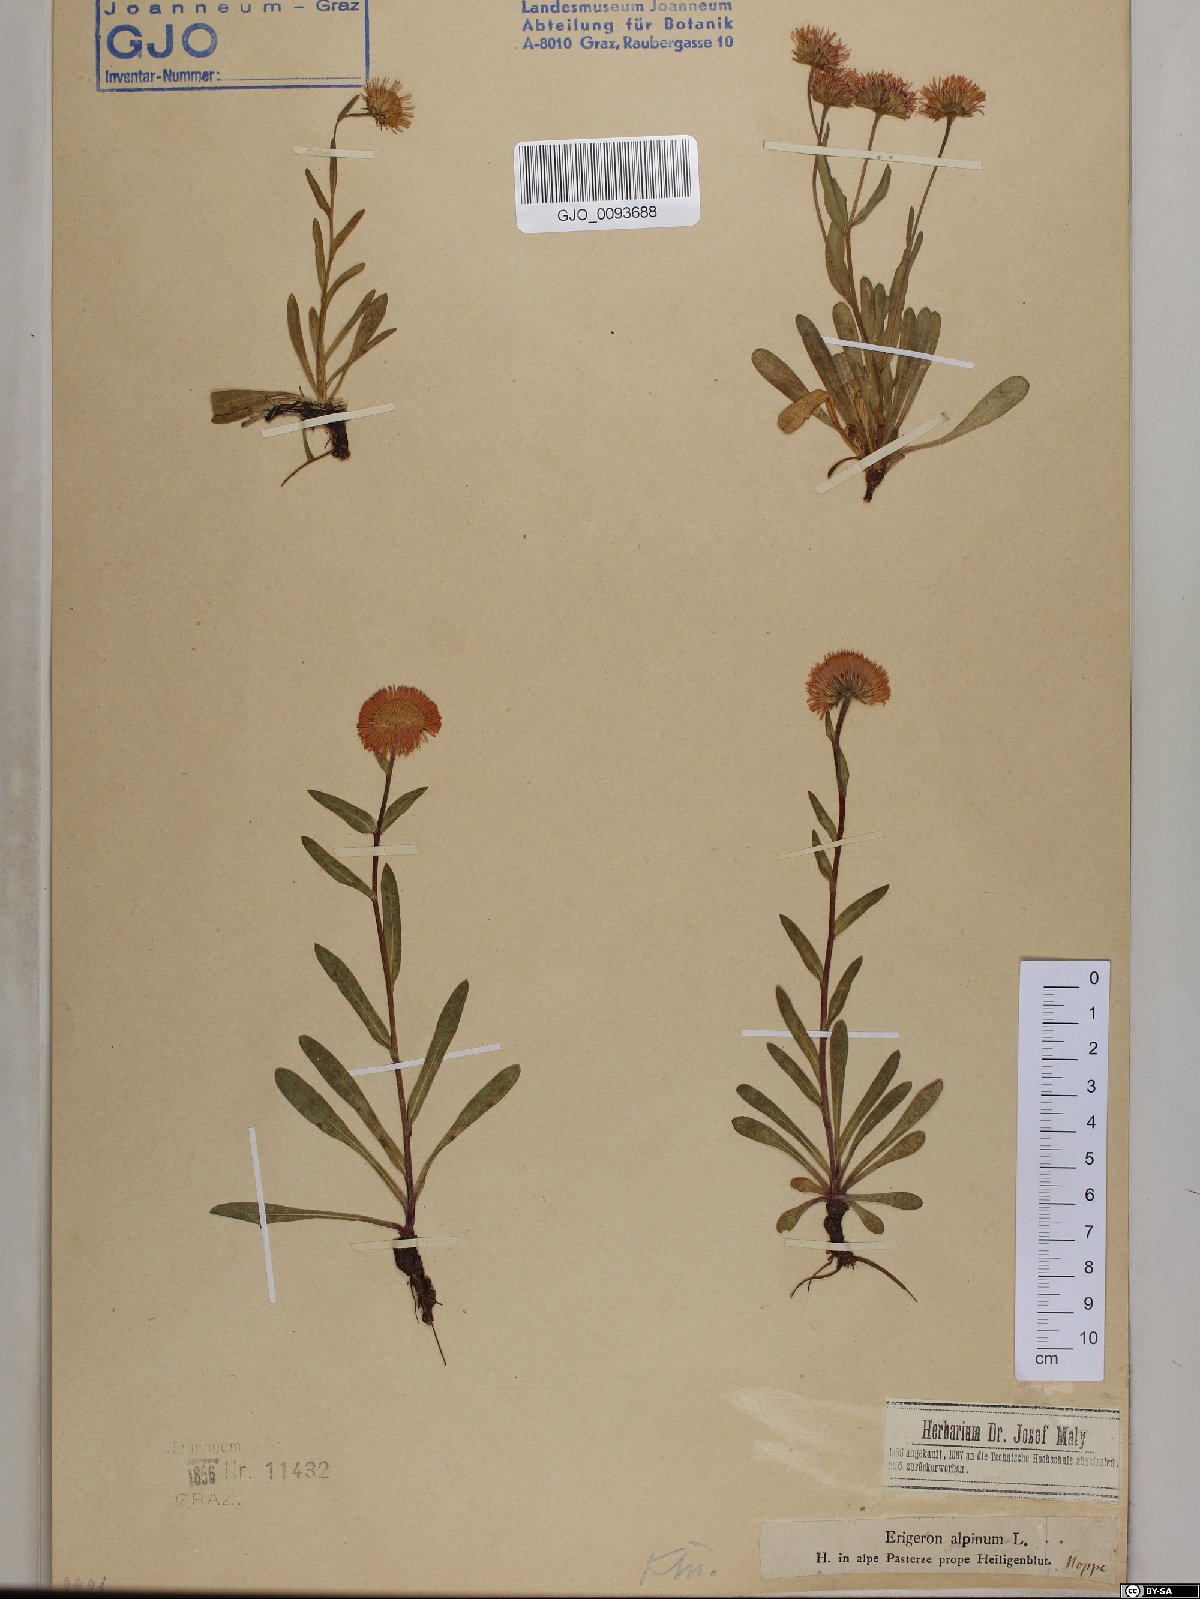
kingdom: Plantae
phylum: Tracheophyta
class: Magnoliopsida
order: Asterales
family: Asteraceae
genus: Erigeron
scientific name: Erigeron alpinus
